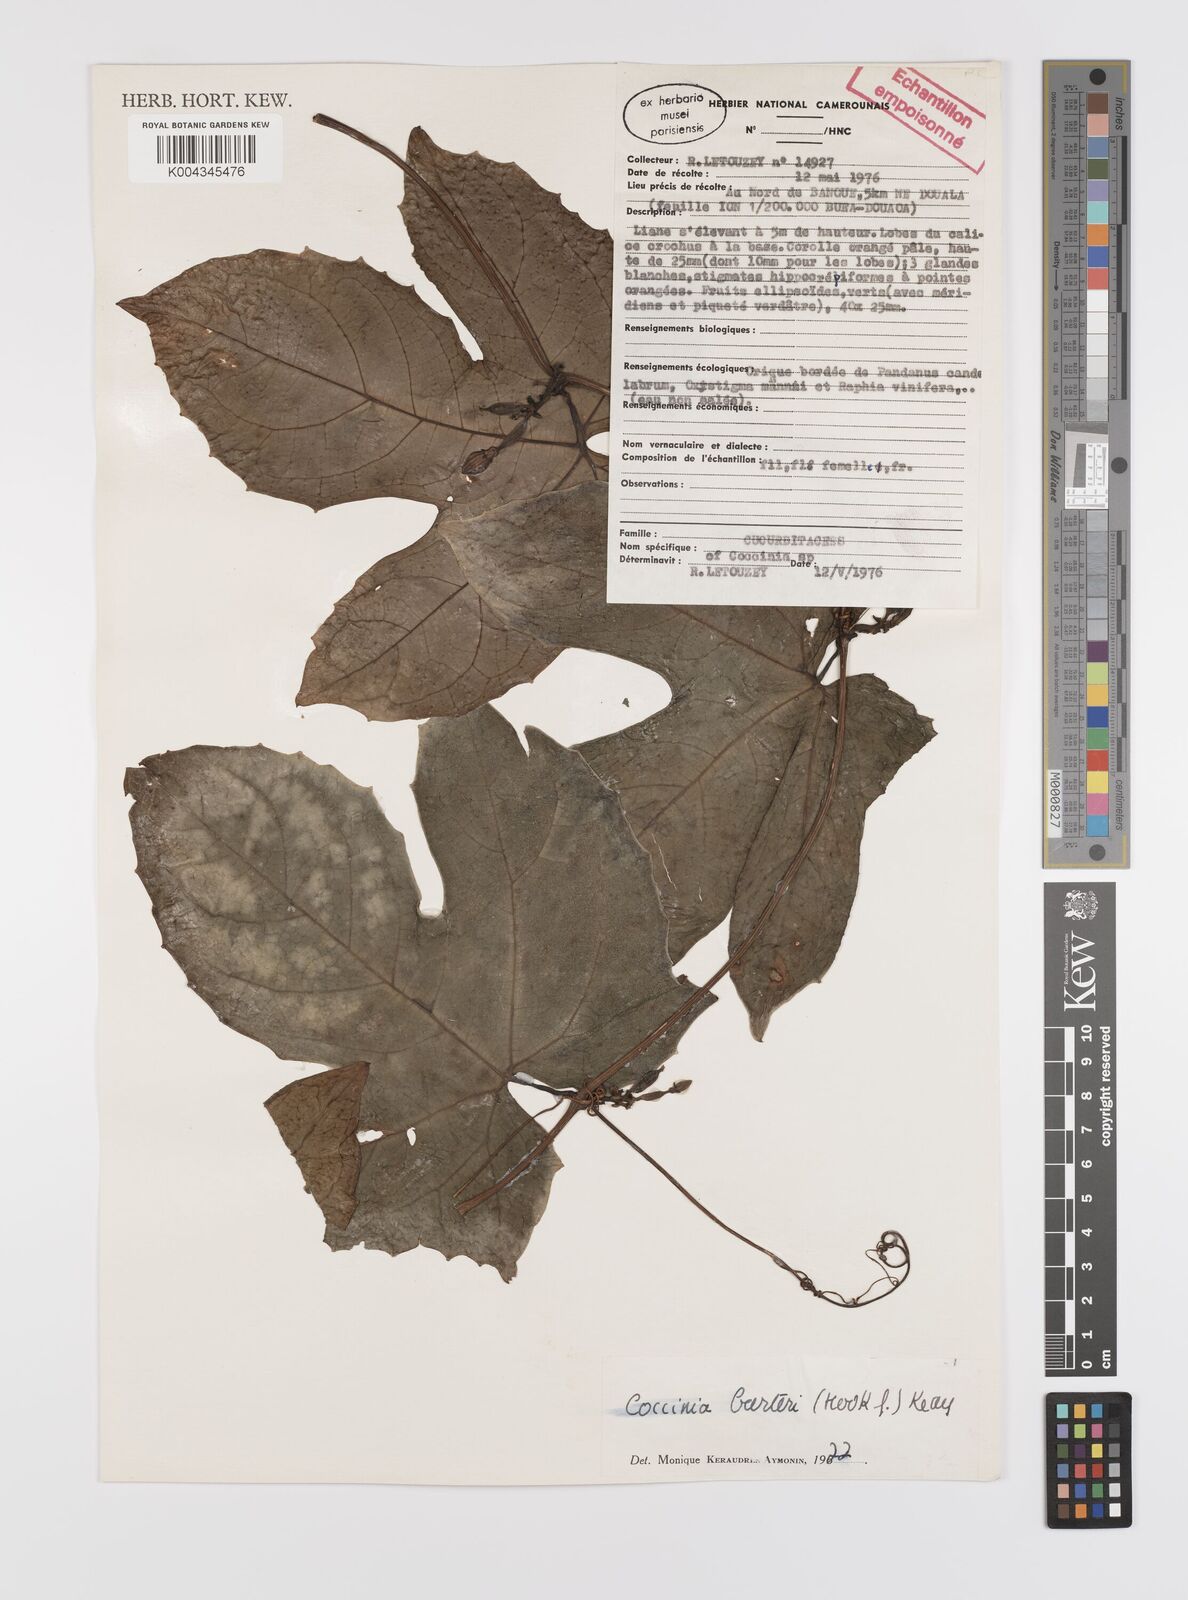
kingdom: Plantae
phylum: Tracheophyta
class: Magnoliopsida
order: Cucurbitales
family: Cucurbitaceae
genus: Coccinia
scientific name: Coccinia barteri
